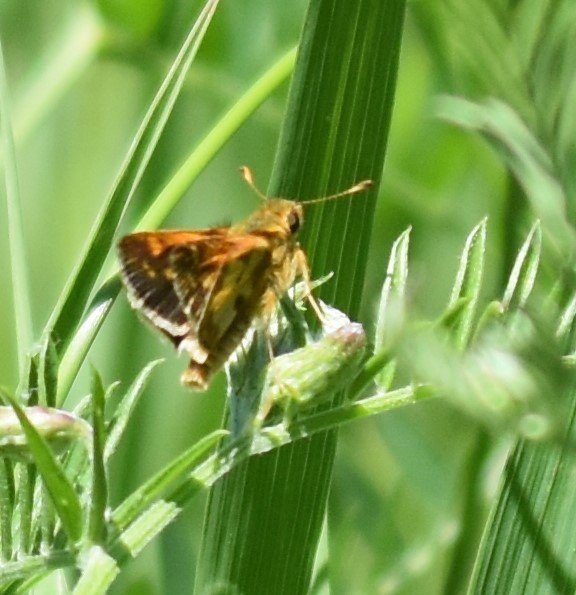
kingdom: Animalia
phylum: Arthropoda
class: Insecta
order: Lepidoptera
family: Hesperiidae
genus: Polites
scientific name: Polites coras
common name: Peck's Skipper
